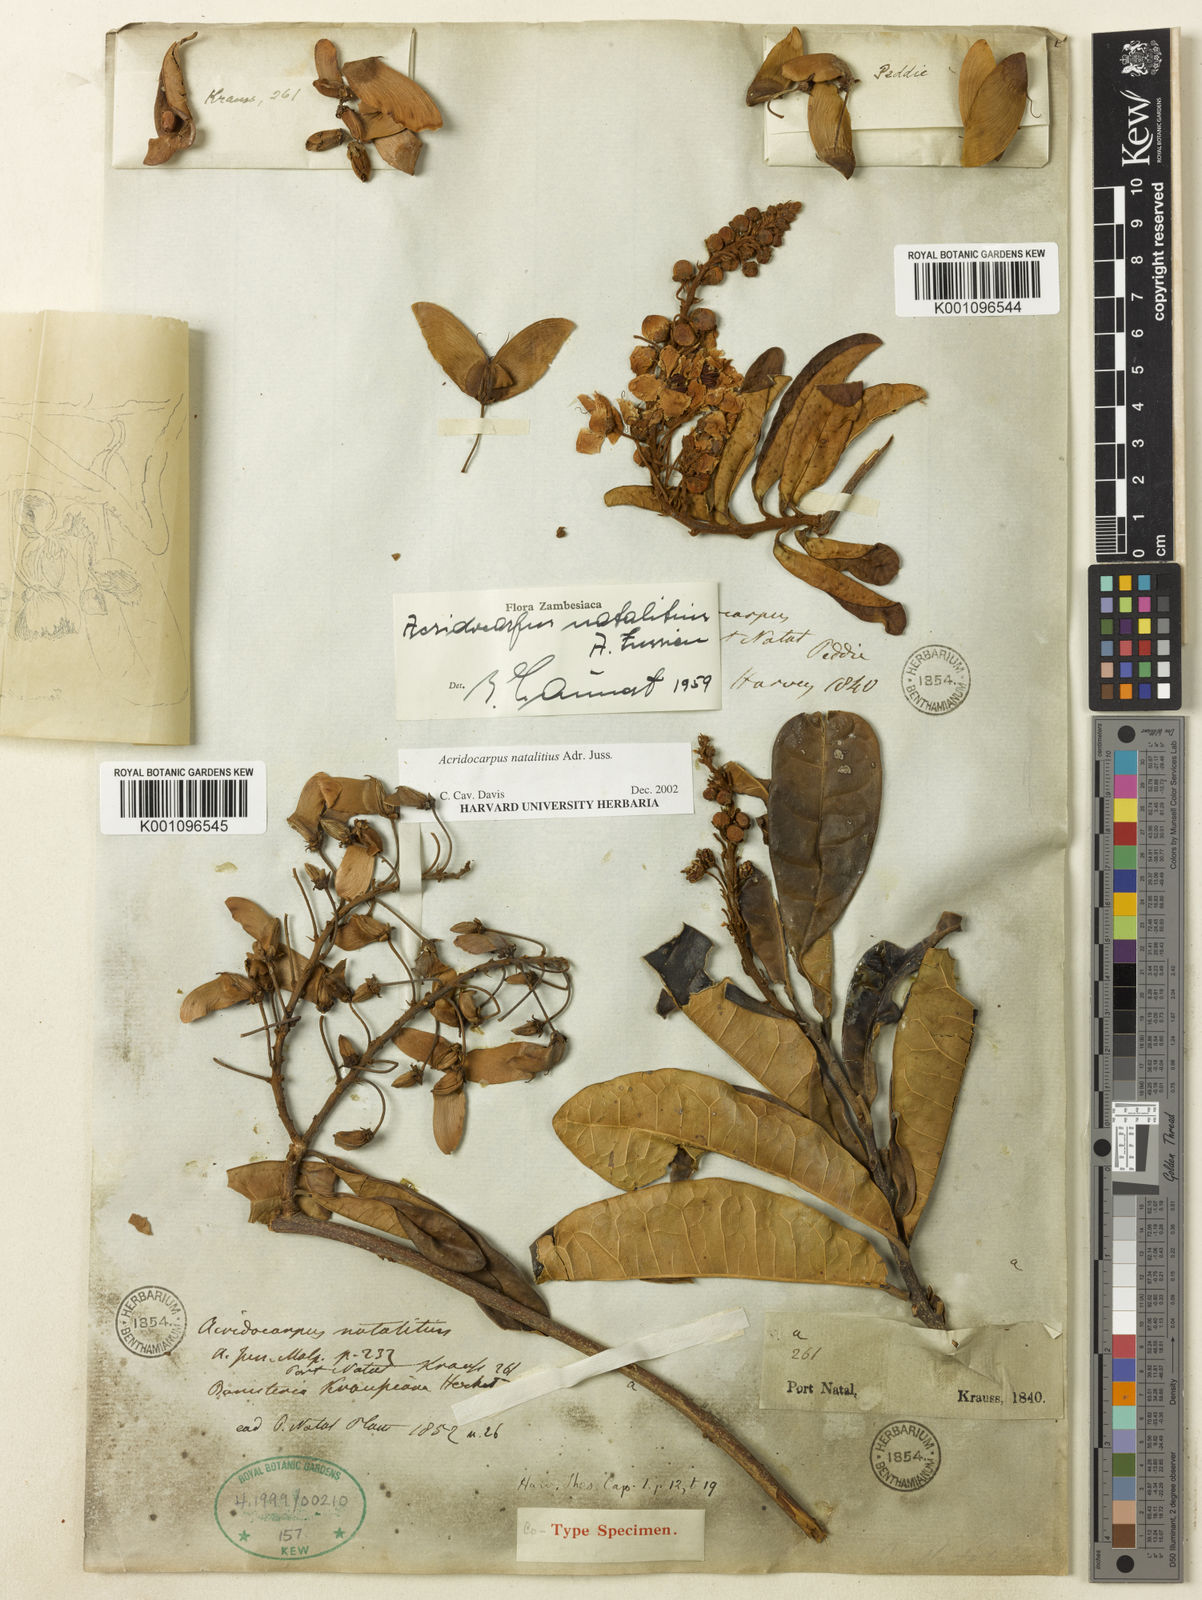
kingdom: Plantae
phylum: Tracheophyta
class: Magnoliopsida
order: Malpighiales
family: Malpighiaceae
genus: Acridocarpus
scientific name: Acridocarpus natalitius
